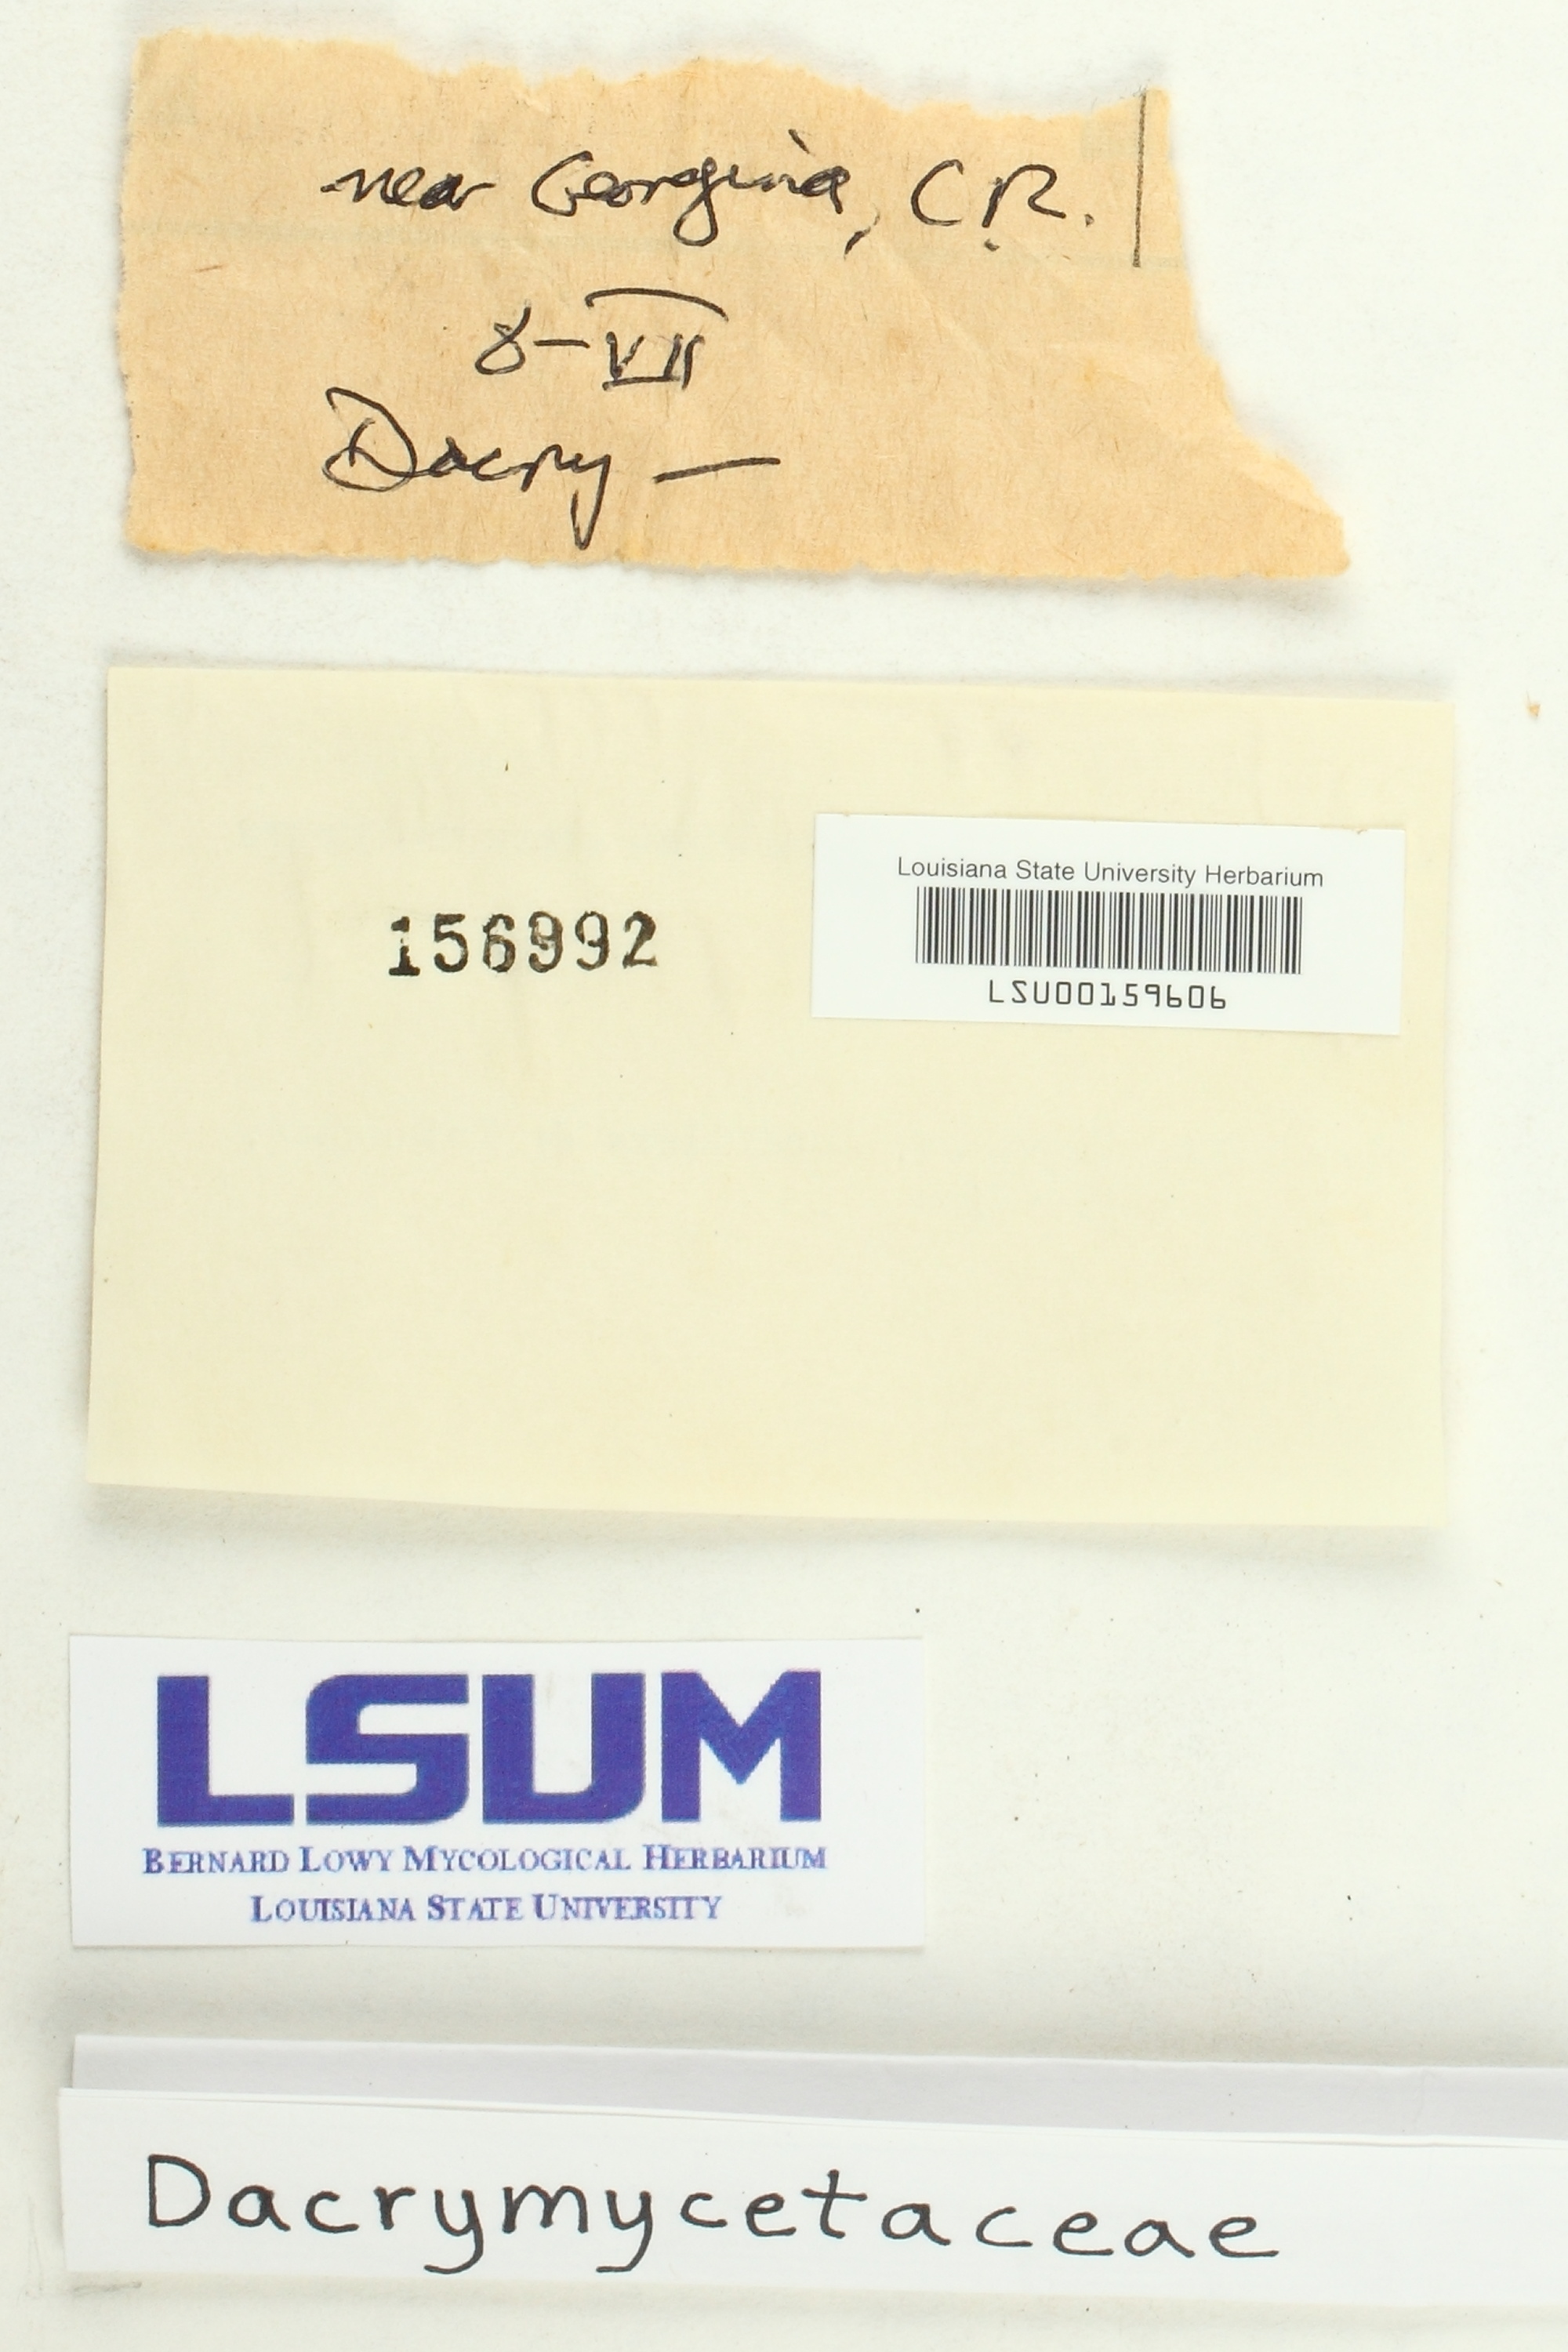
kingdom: Fungi
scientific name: Fungi
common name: Fungi
